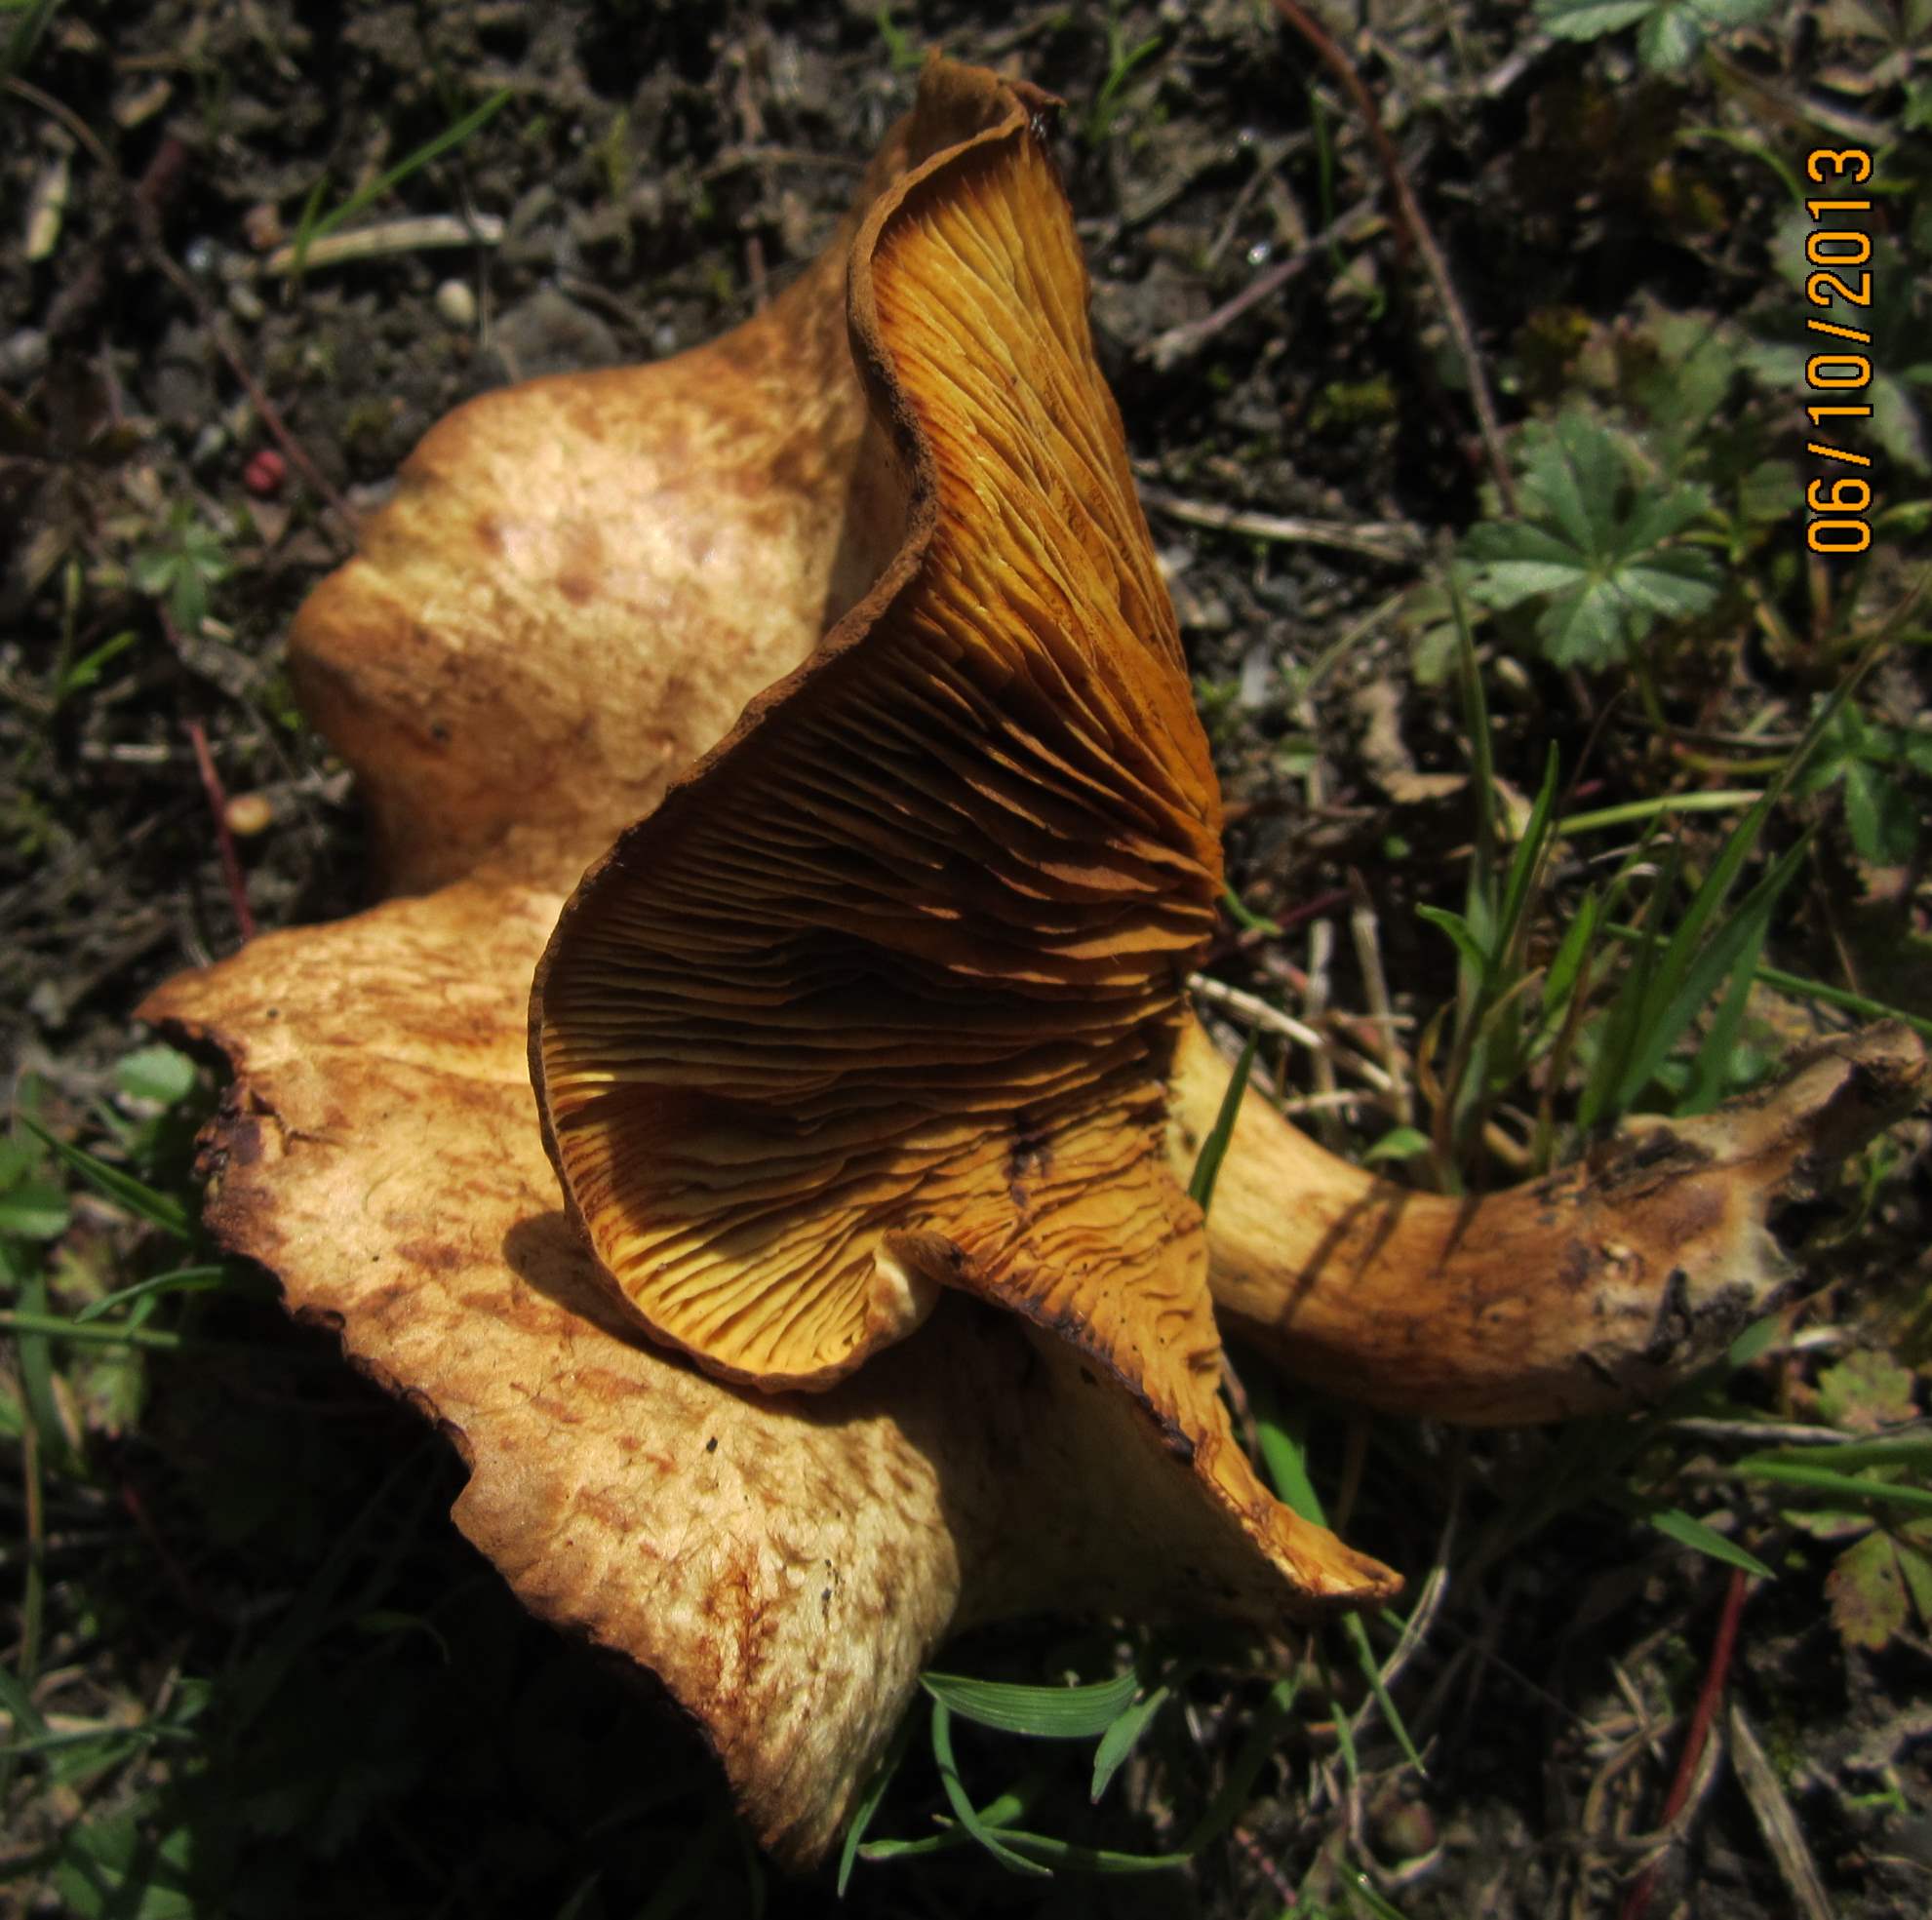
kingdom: Fungi
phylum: Basidiomycota
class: Agaricomycetes
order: Boletales
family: Paxillaceae
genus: Paxillus
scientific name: Paxillus rubicundulus
